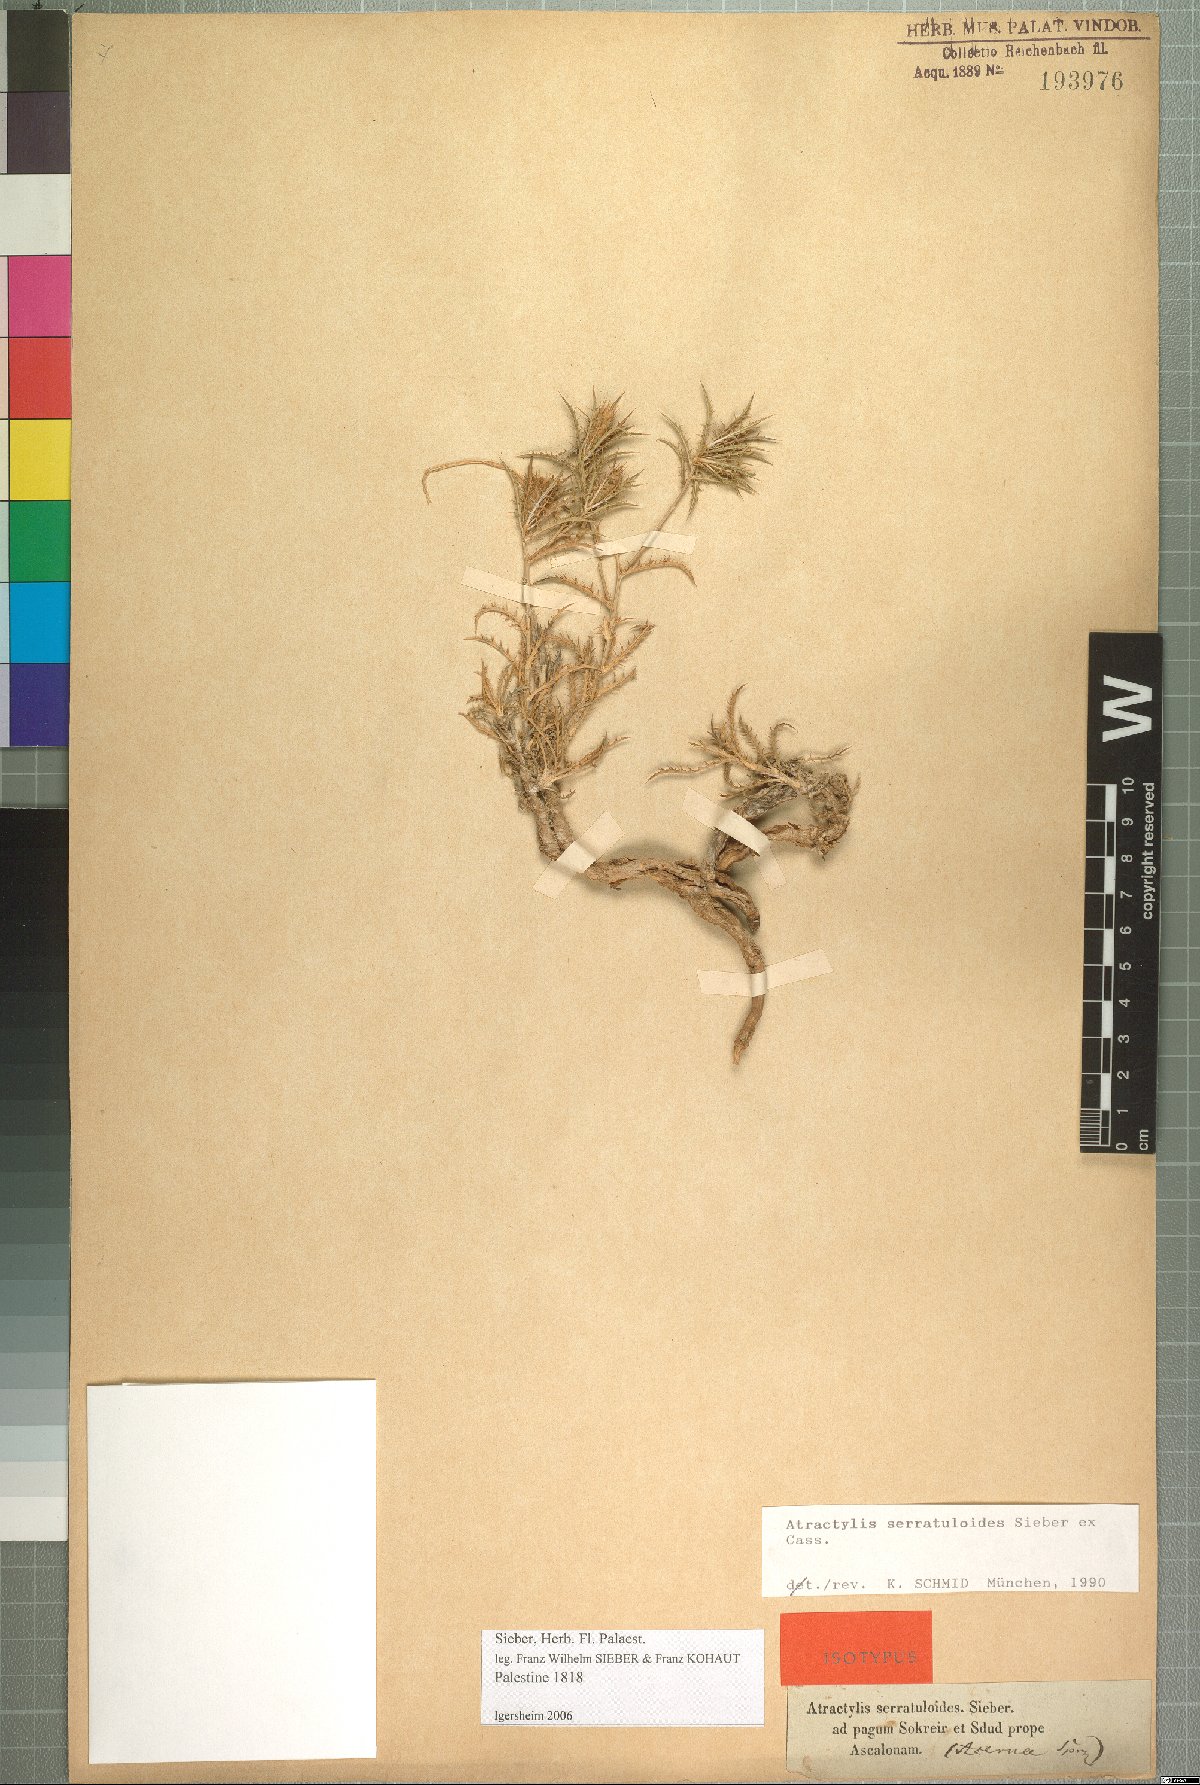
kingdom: Plantae
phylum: Tracheophyta
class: Magnoliopsida
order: Asterales
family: Asteraceae
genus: Atractylis
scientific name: Atractylis serratuloides
